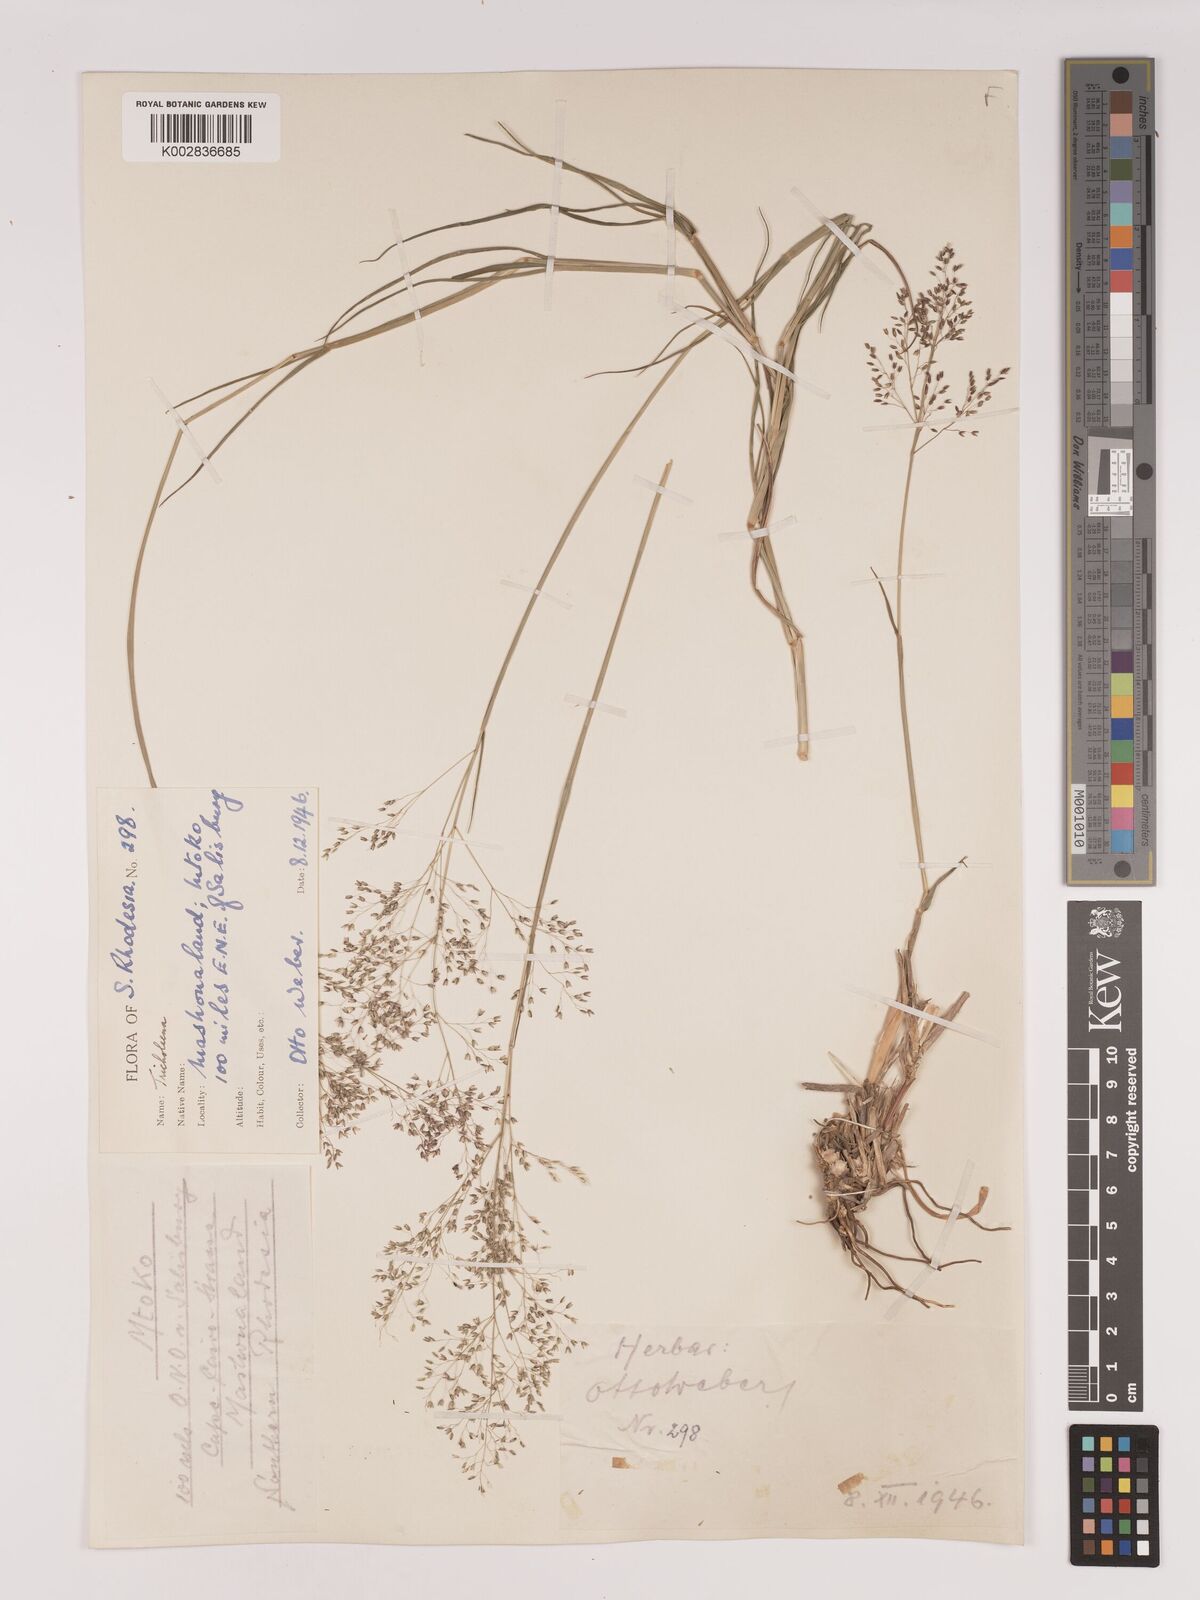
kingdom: Plantae
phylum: Tracheophyta
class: Liliopsida
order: Poales
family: Poaceae
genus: Tricholaena
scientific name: Tricholaena monachne
